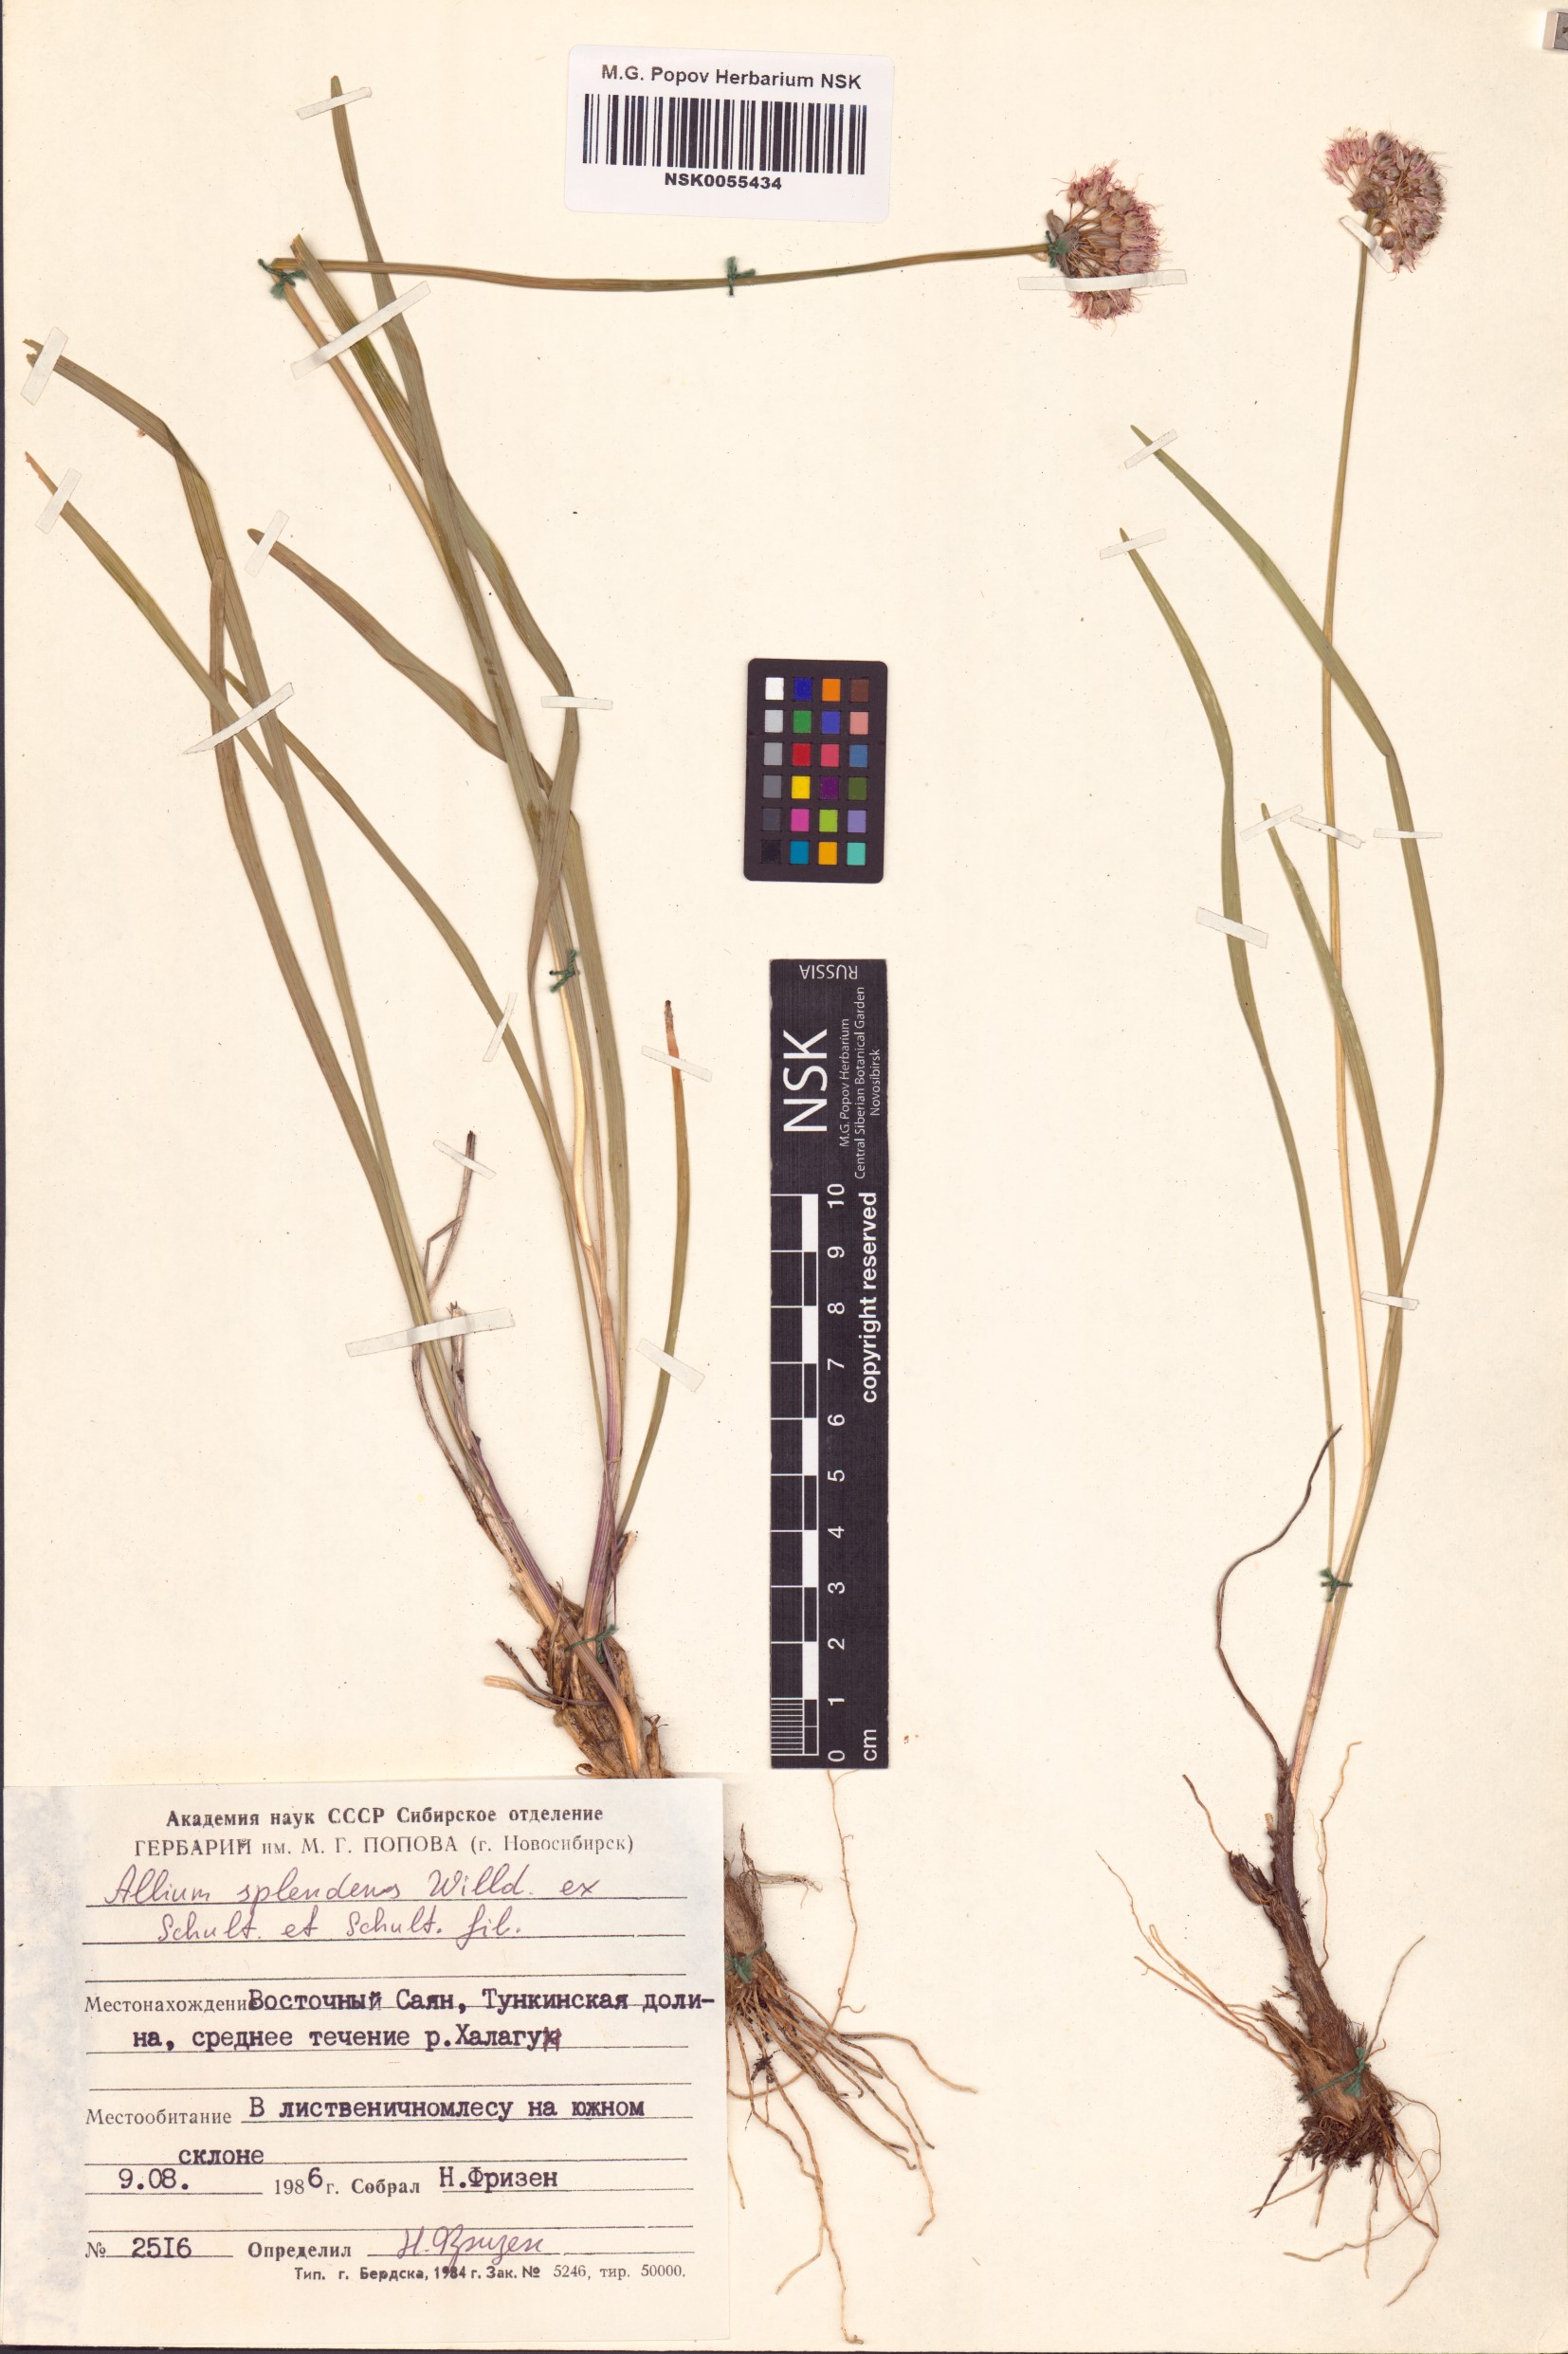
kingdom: Plantae
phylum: Tracheophyta
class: Liliopsida
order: Asparagales
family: Amaryllidaceae
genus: Allium
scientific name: Allium splendens
